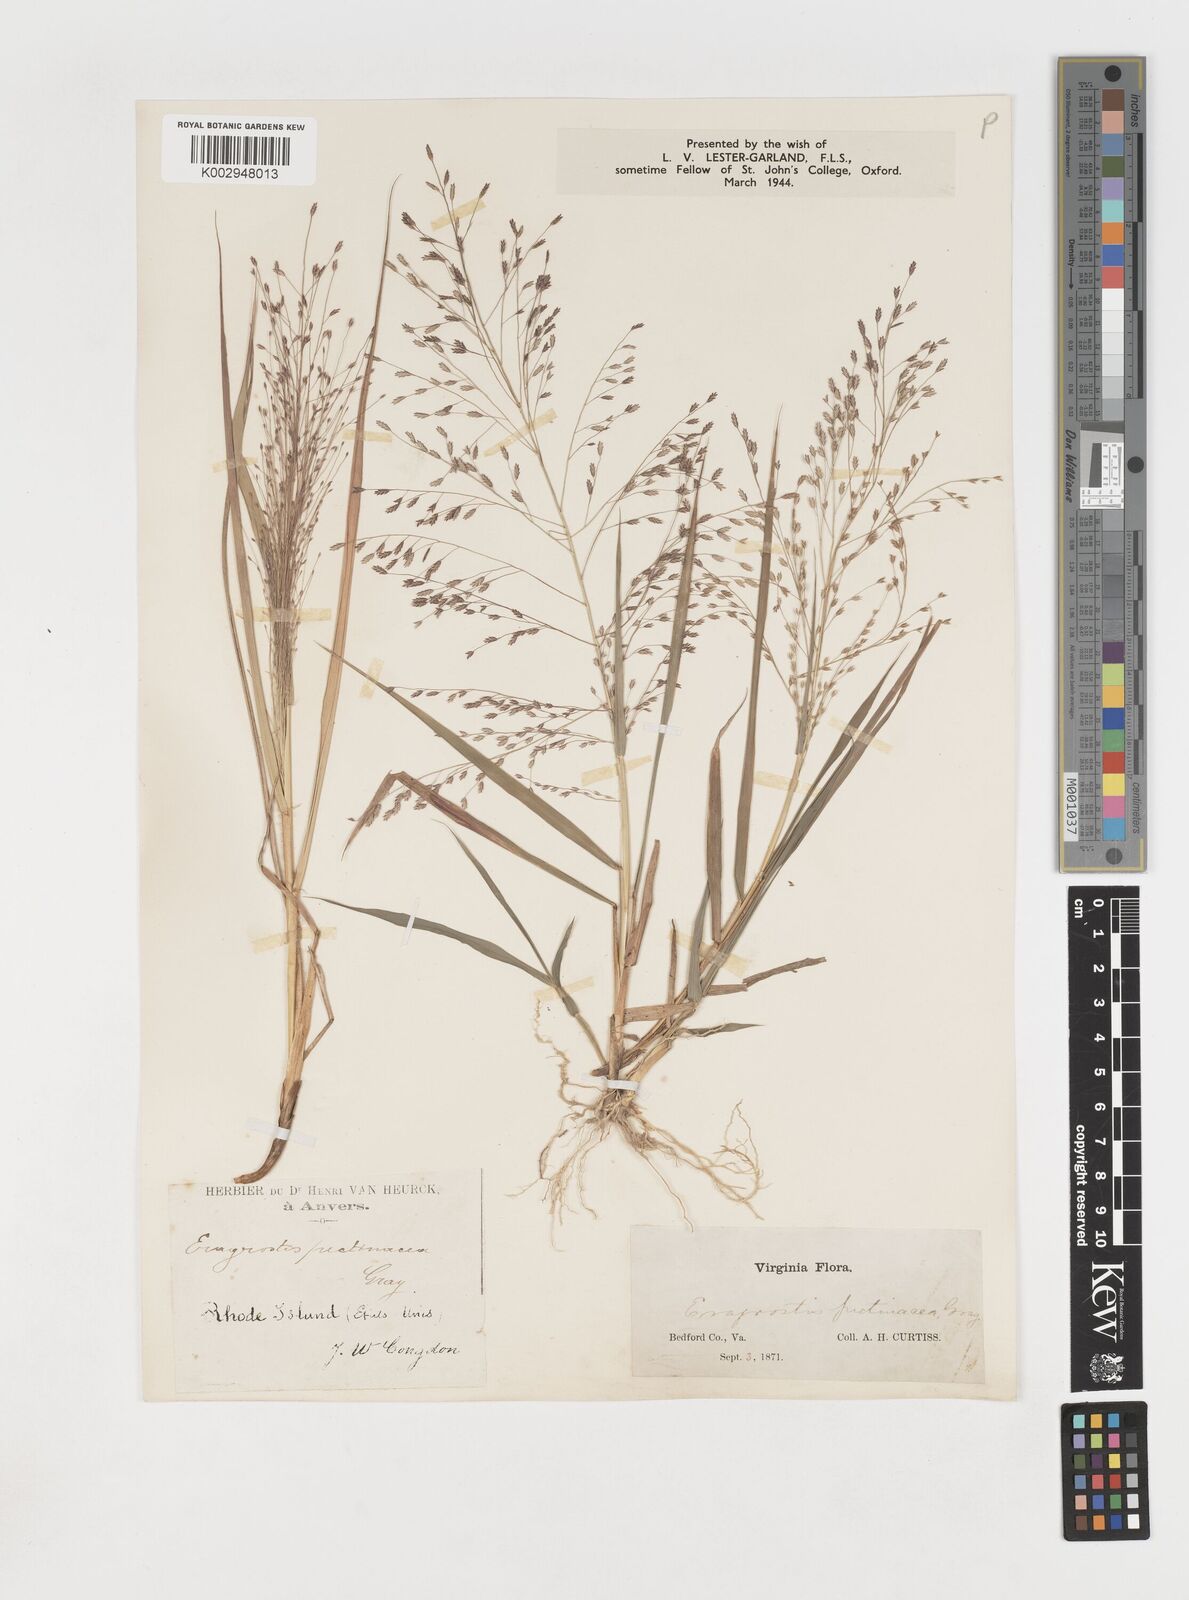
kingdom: Plantae
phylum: Tracheophyta
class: Liliopsida
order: Poales
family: Poaceae
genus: Eragrostis
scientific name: Eragrostis spectabilis
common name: Petticoat-climber
